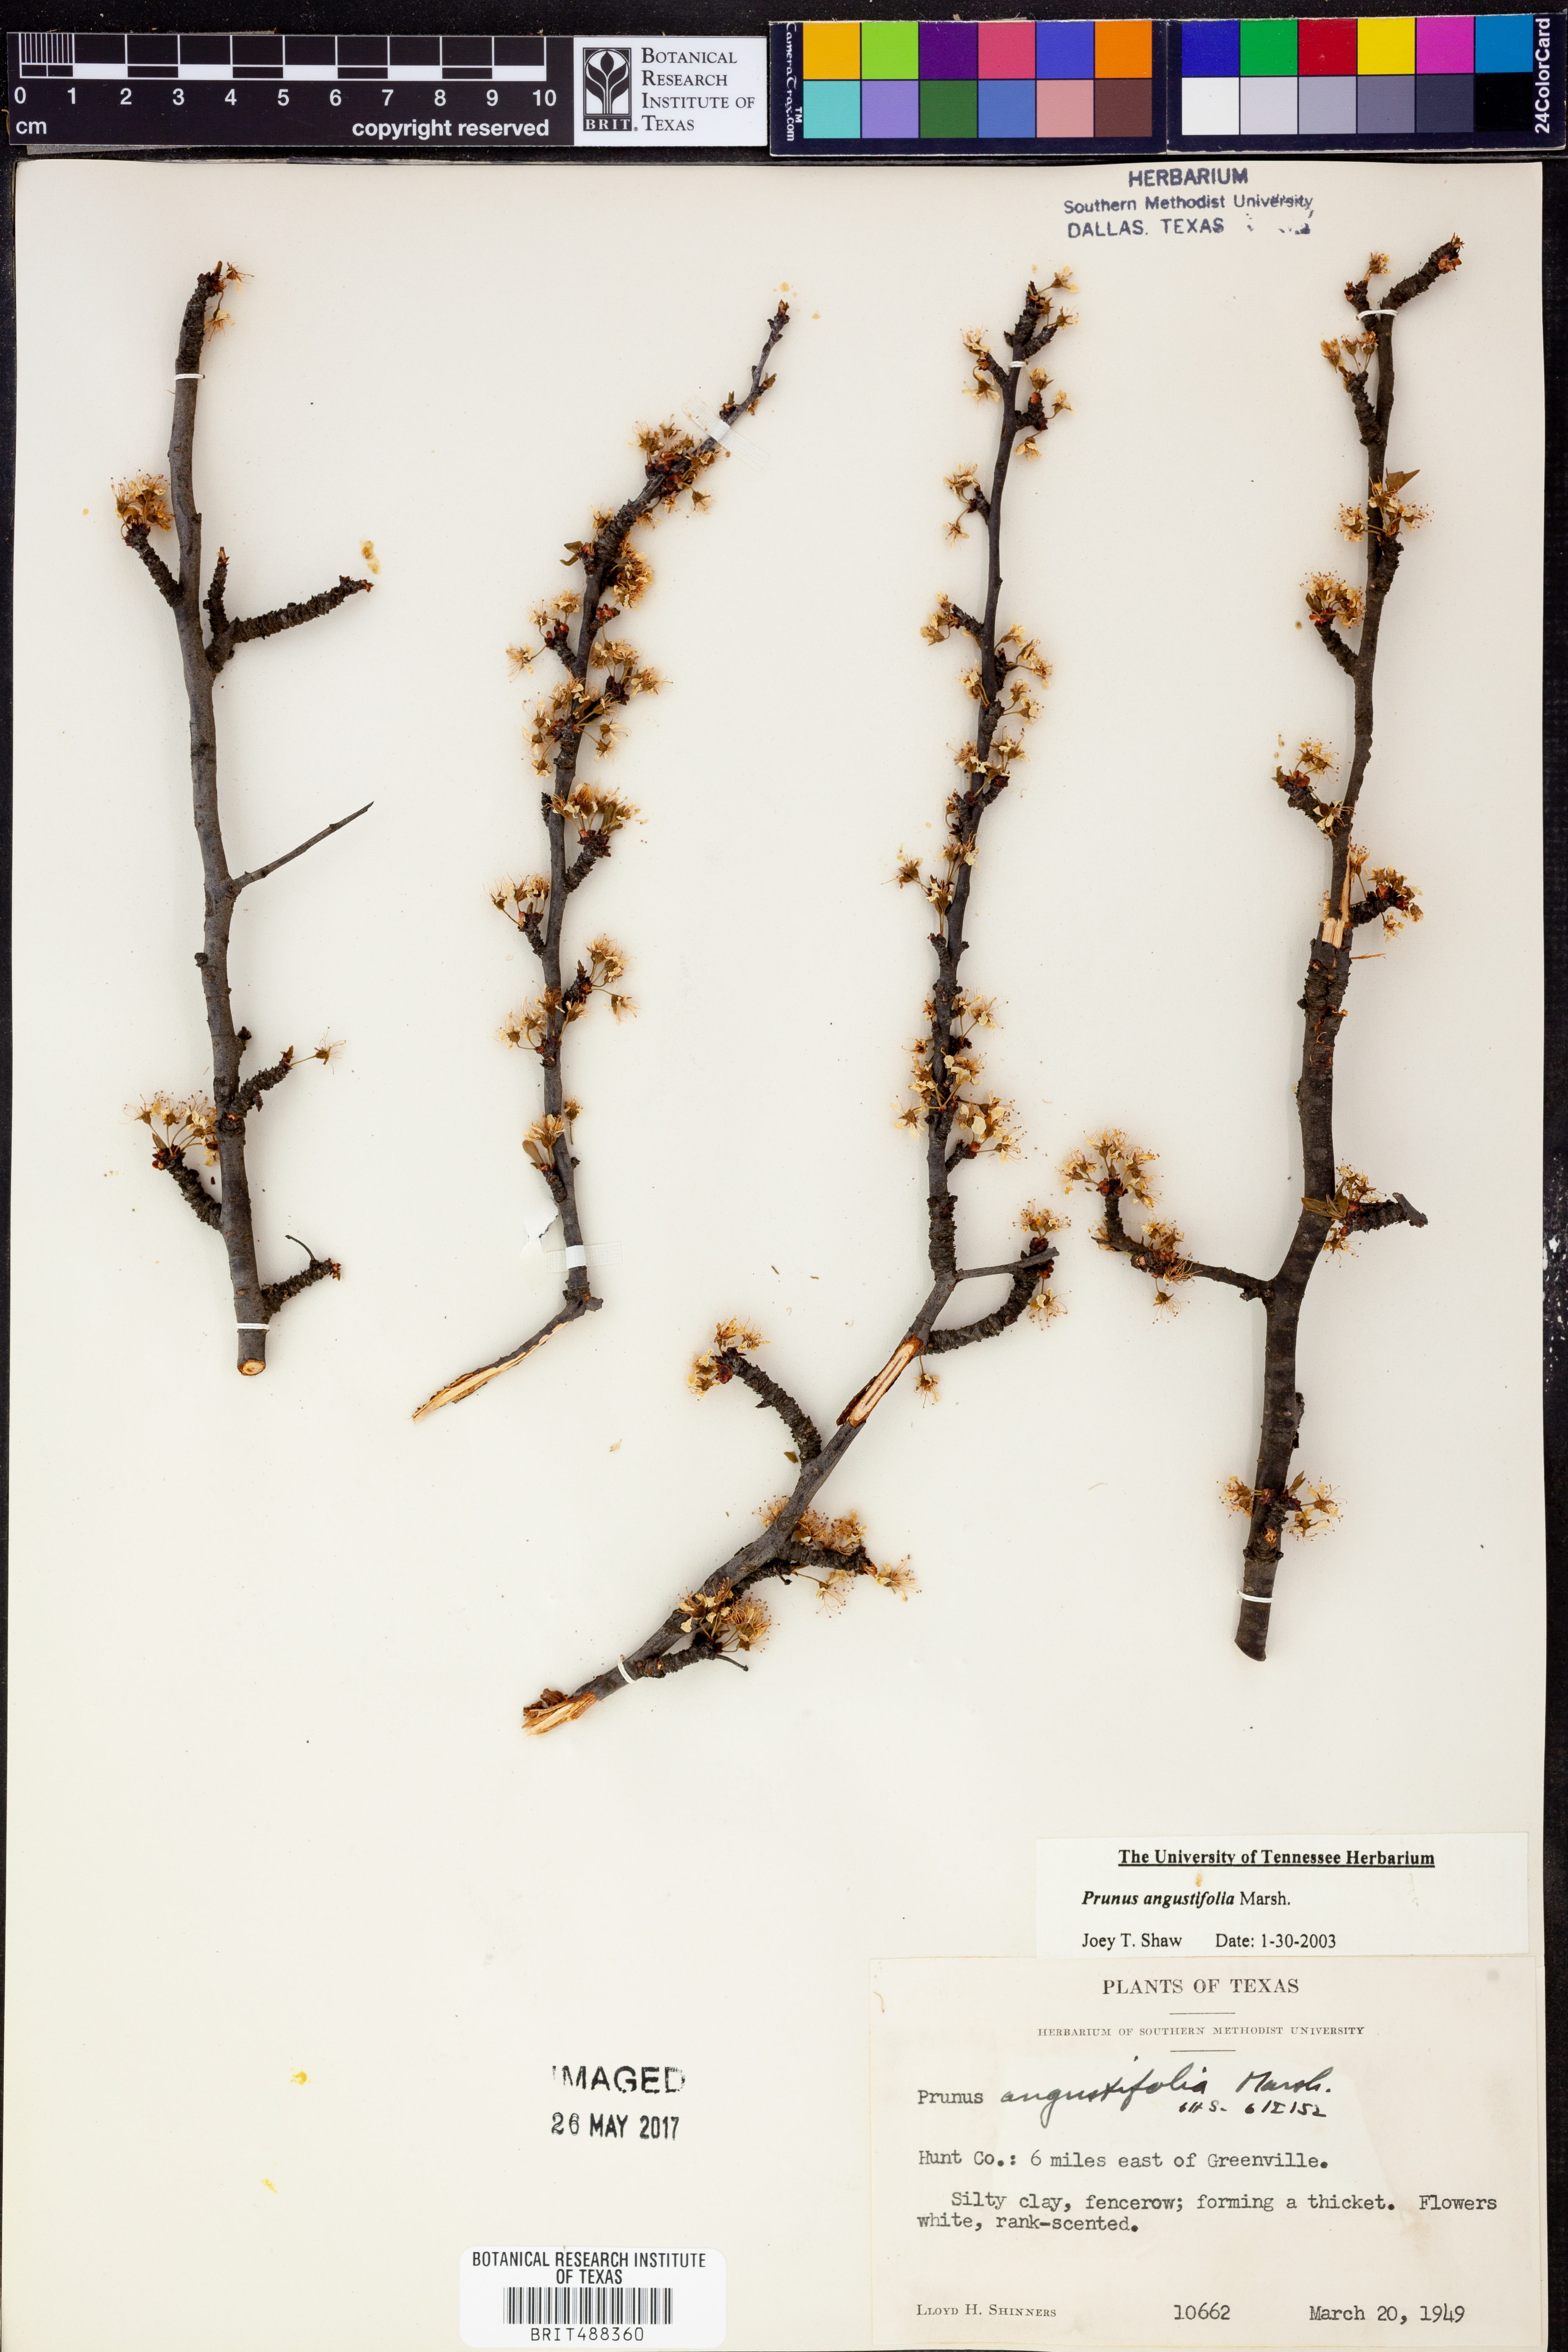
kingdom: Plantae
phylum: Tracheophyta
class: Magnoliopsida
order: Rosales
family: Rosaceae
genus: Prunus
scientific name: Prunus angustifolia
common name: Cherokee plum
